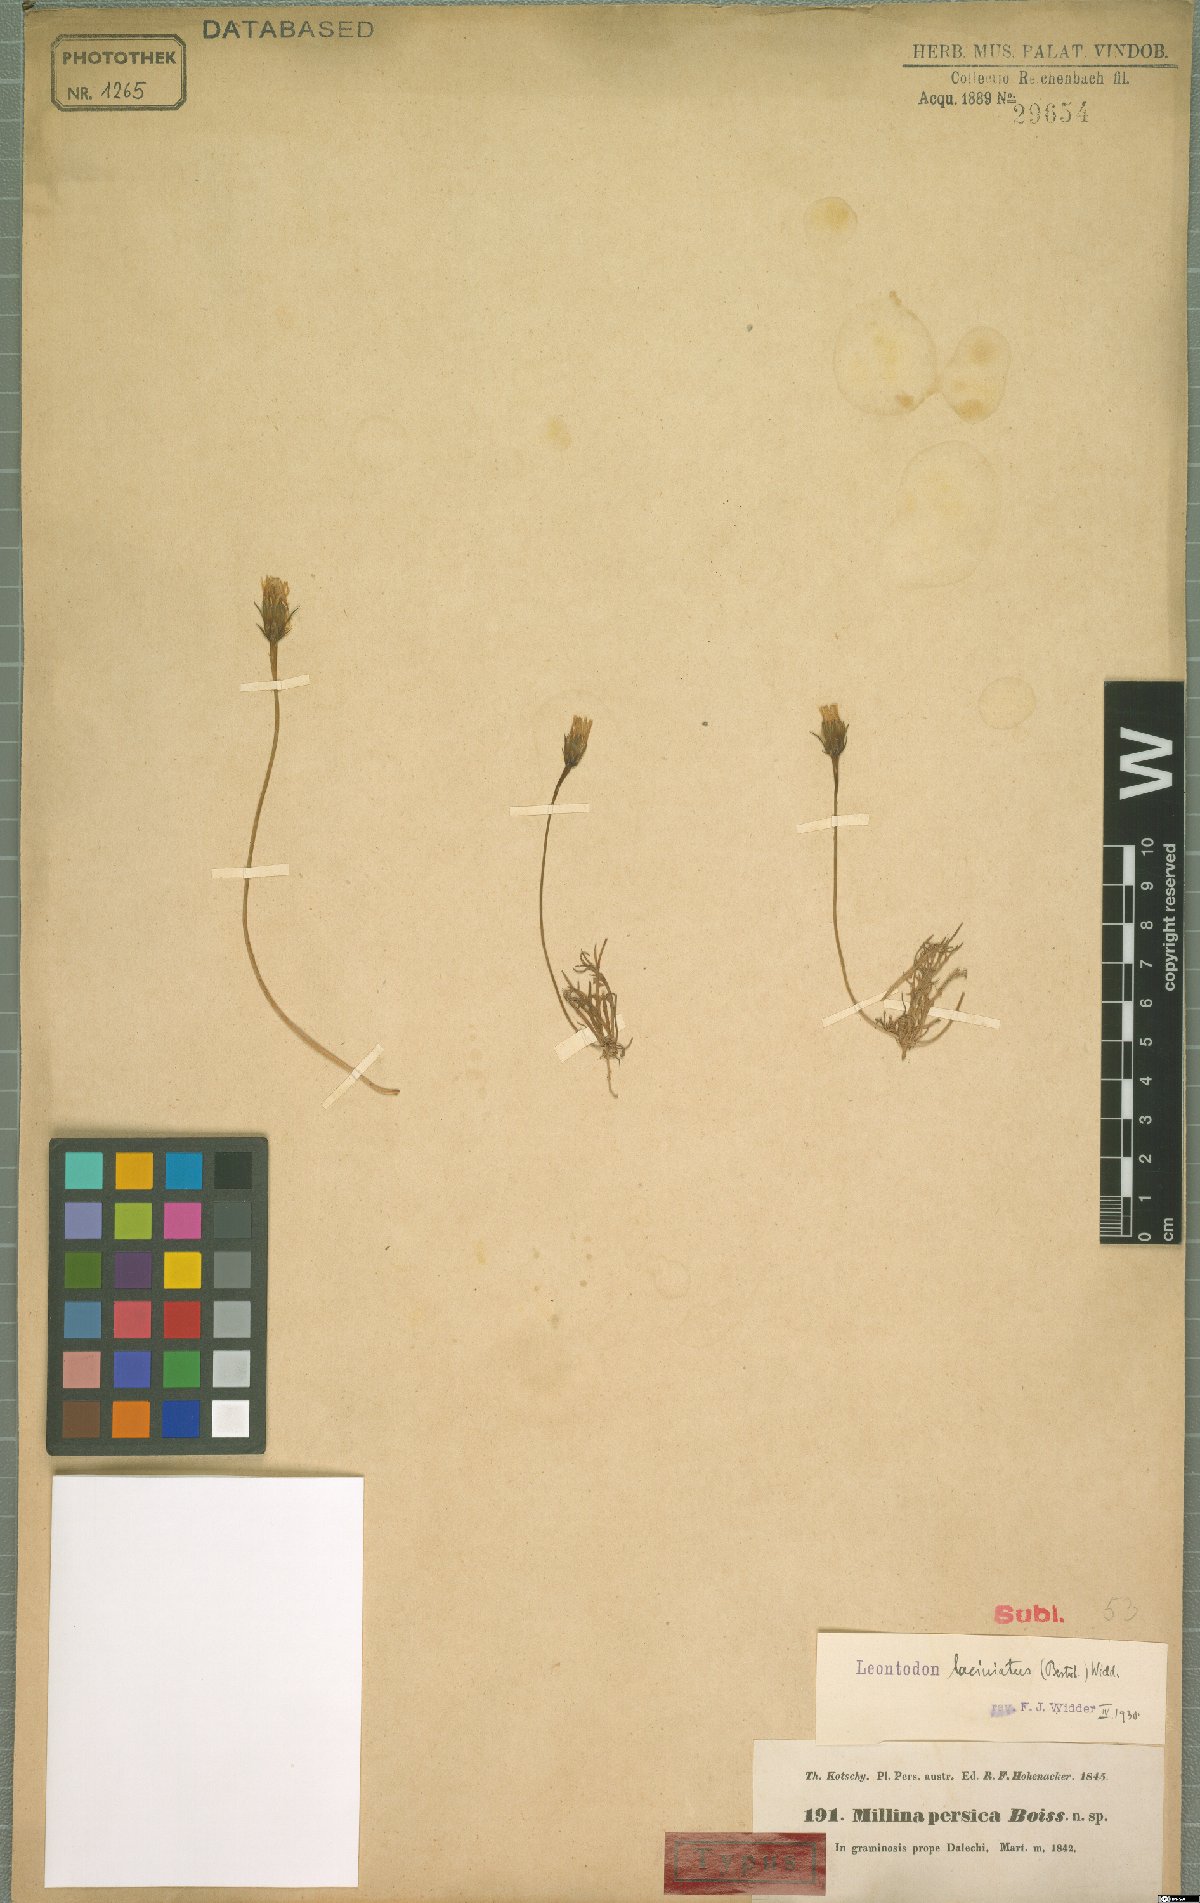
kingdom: Plantae
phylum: Tracheophyta
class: Magnoliopsida
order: Asterales
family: Asteraceae
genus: Leontodon
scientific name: Leontodon laciniatus
